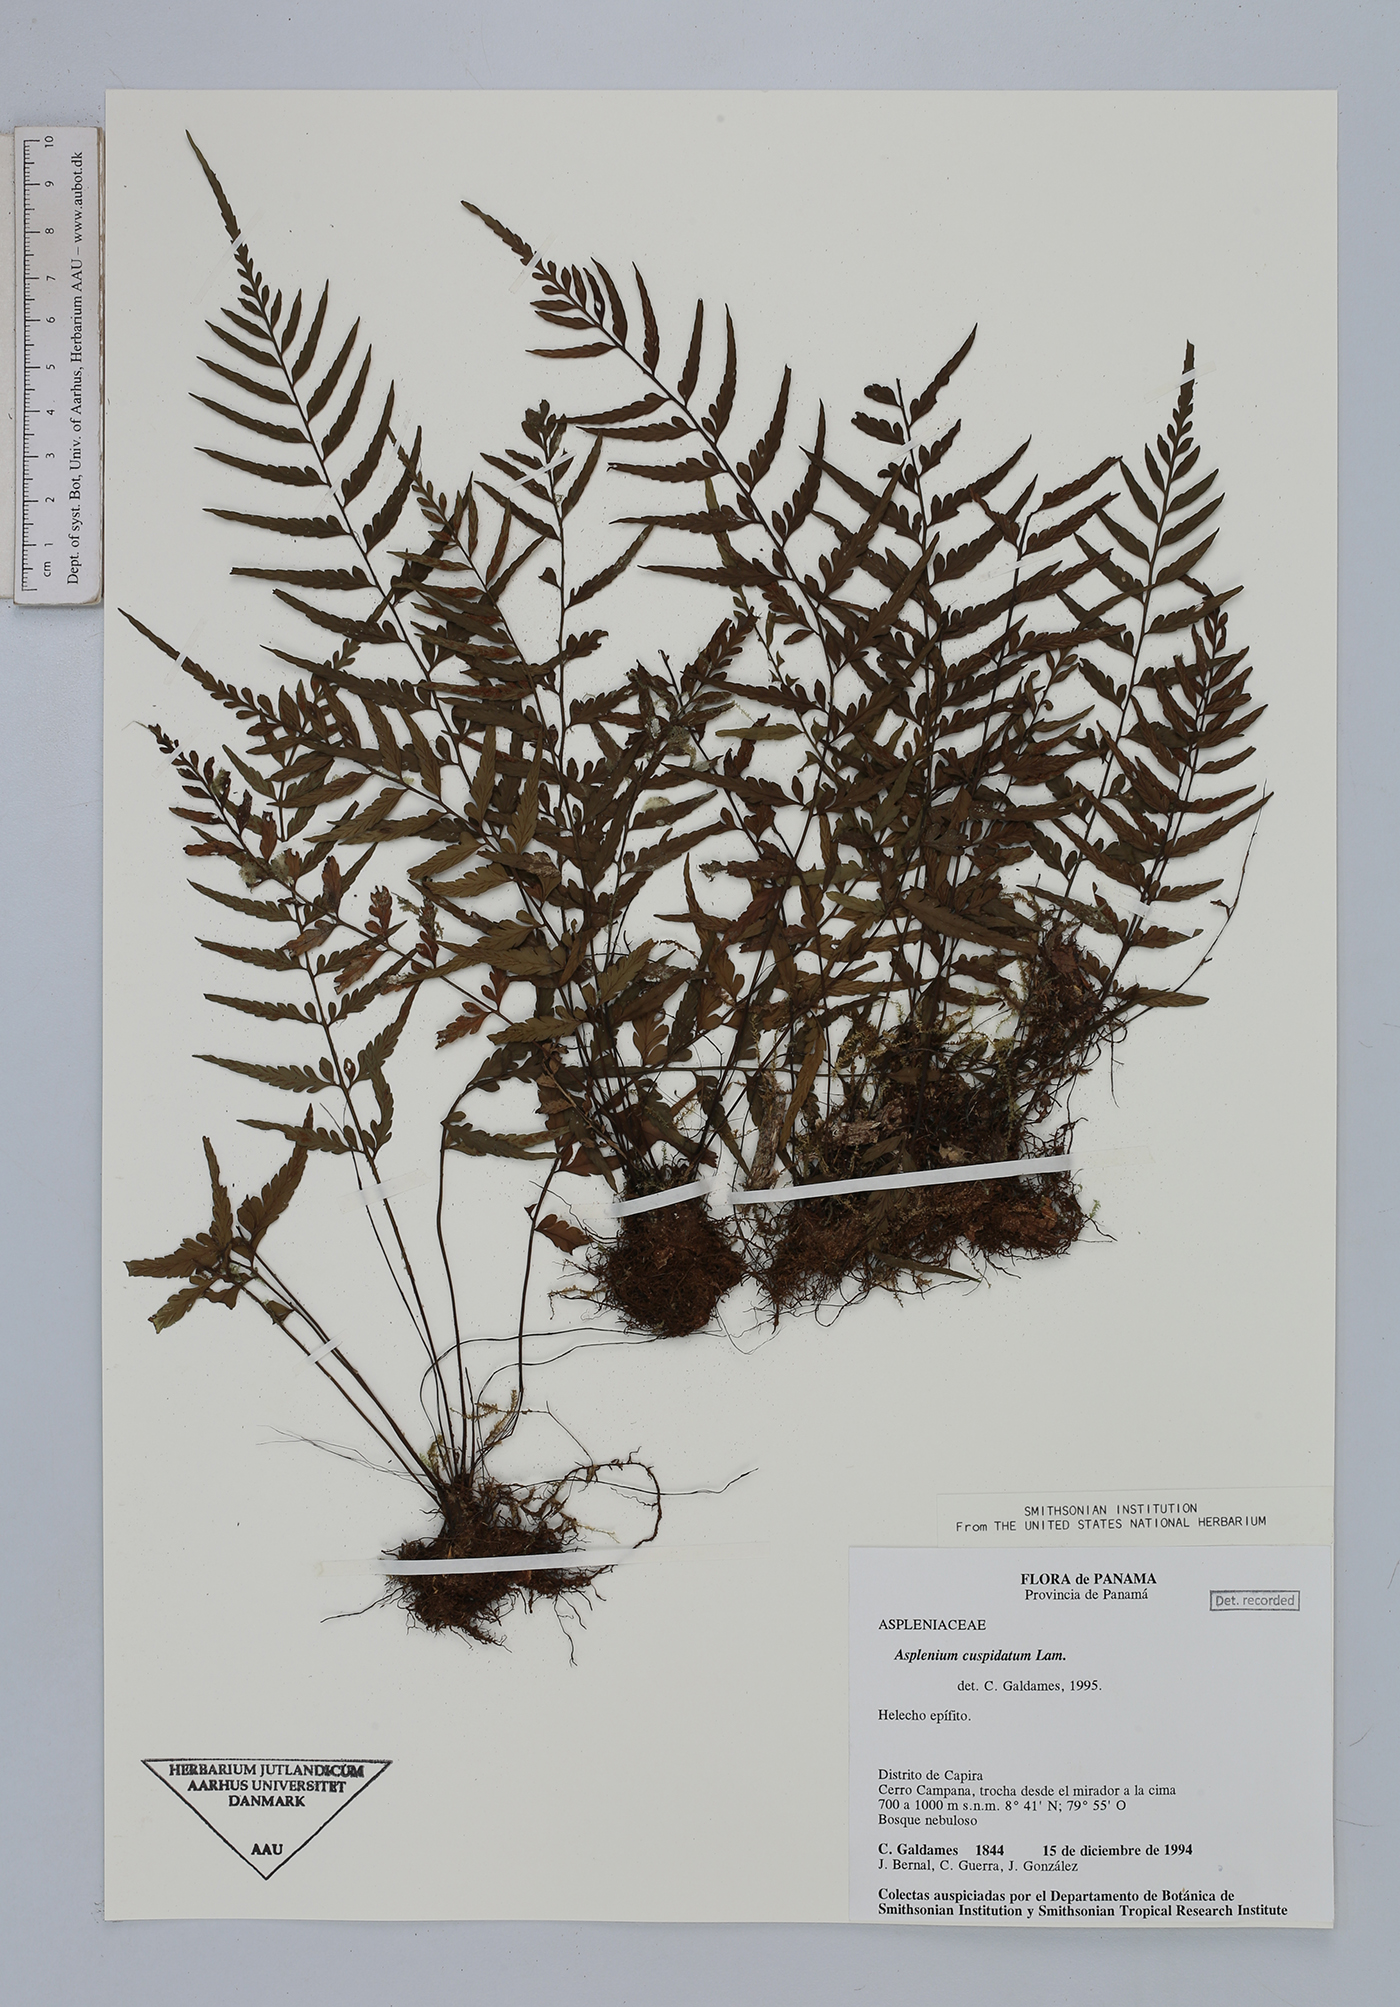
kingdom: Plantae
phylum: Tracheophyta
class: Polypodiopsida
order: Polypodiales
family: Aspleniaceae
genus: Asplenium
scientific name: Asplenium cuspidatum
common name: Eared spleenwort
